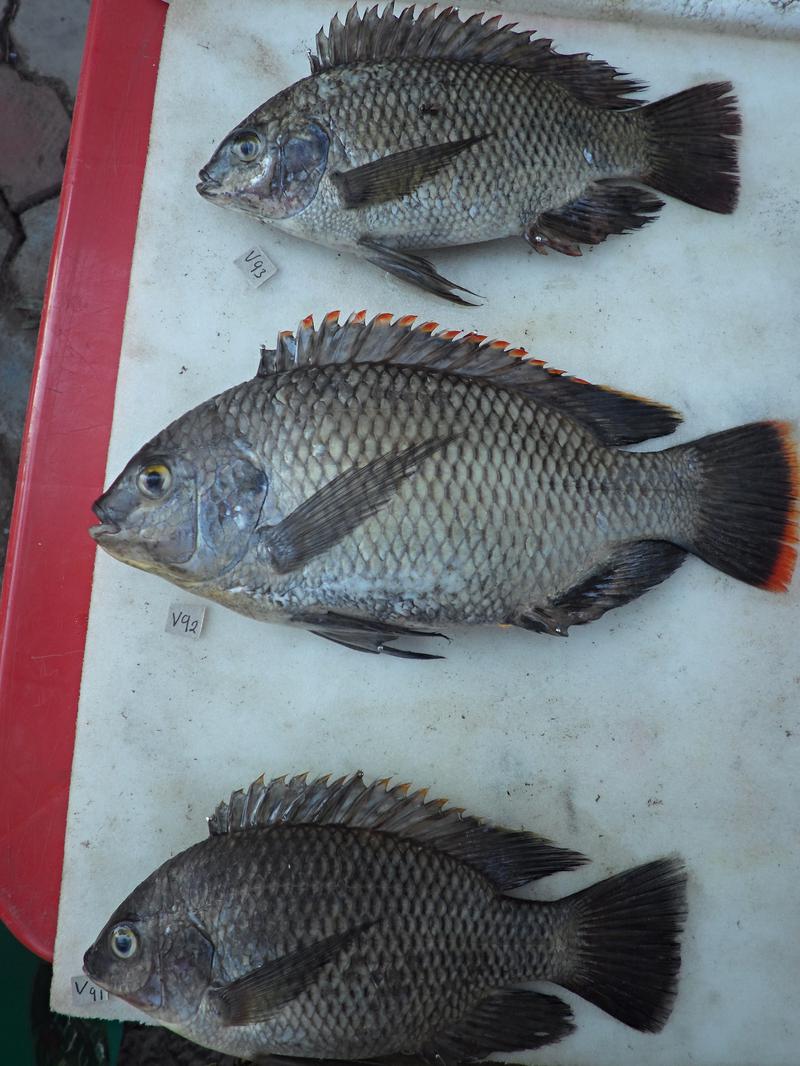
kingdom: Animalia
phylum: Chordata
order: Perciformes
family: Cichlidae
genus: Oreochromis
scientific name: Oreochromis variabilis
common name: Victoria tilapia
